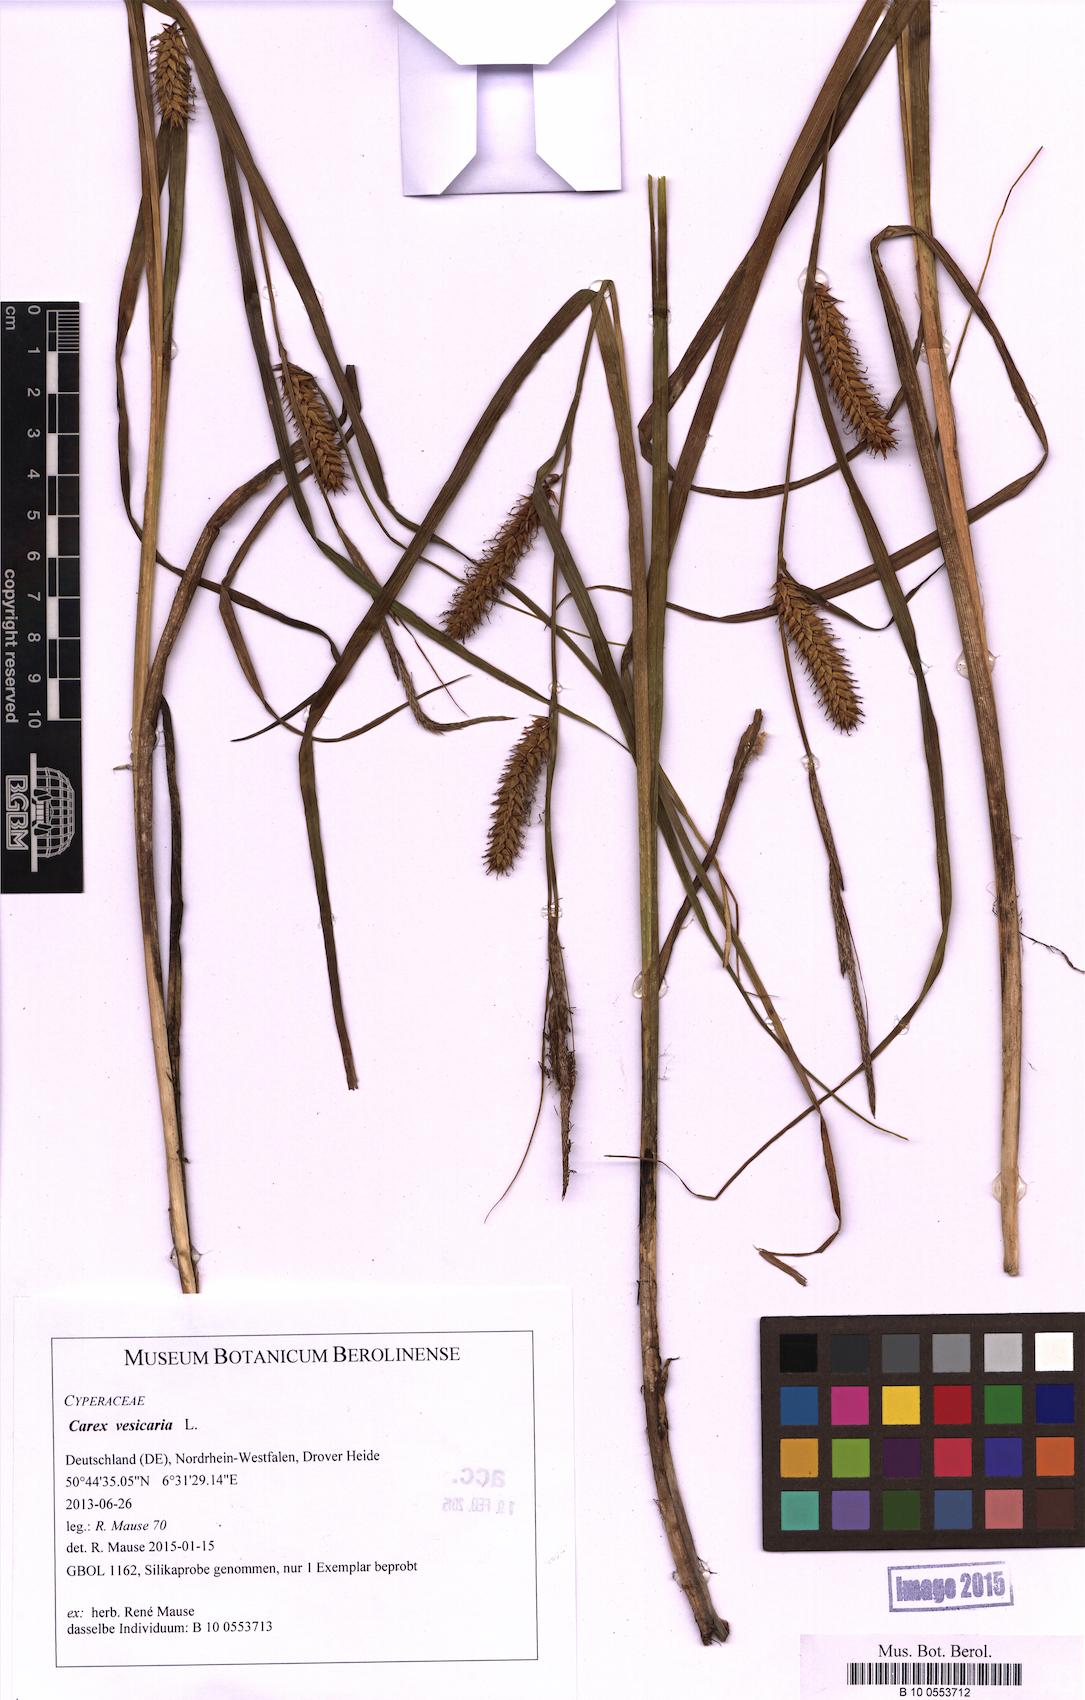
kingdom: Plantae
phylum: Tracheophyta
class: Liliopsida
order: Poales
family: Cyperaceae
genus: Carex
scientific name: Carex vesicaria
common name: Bladder-sedge
